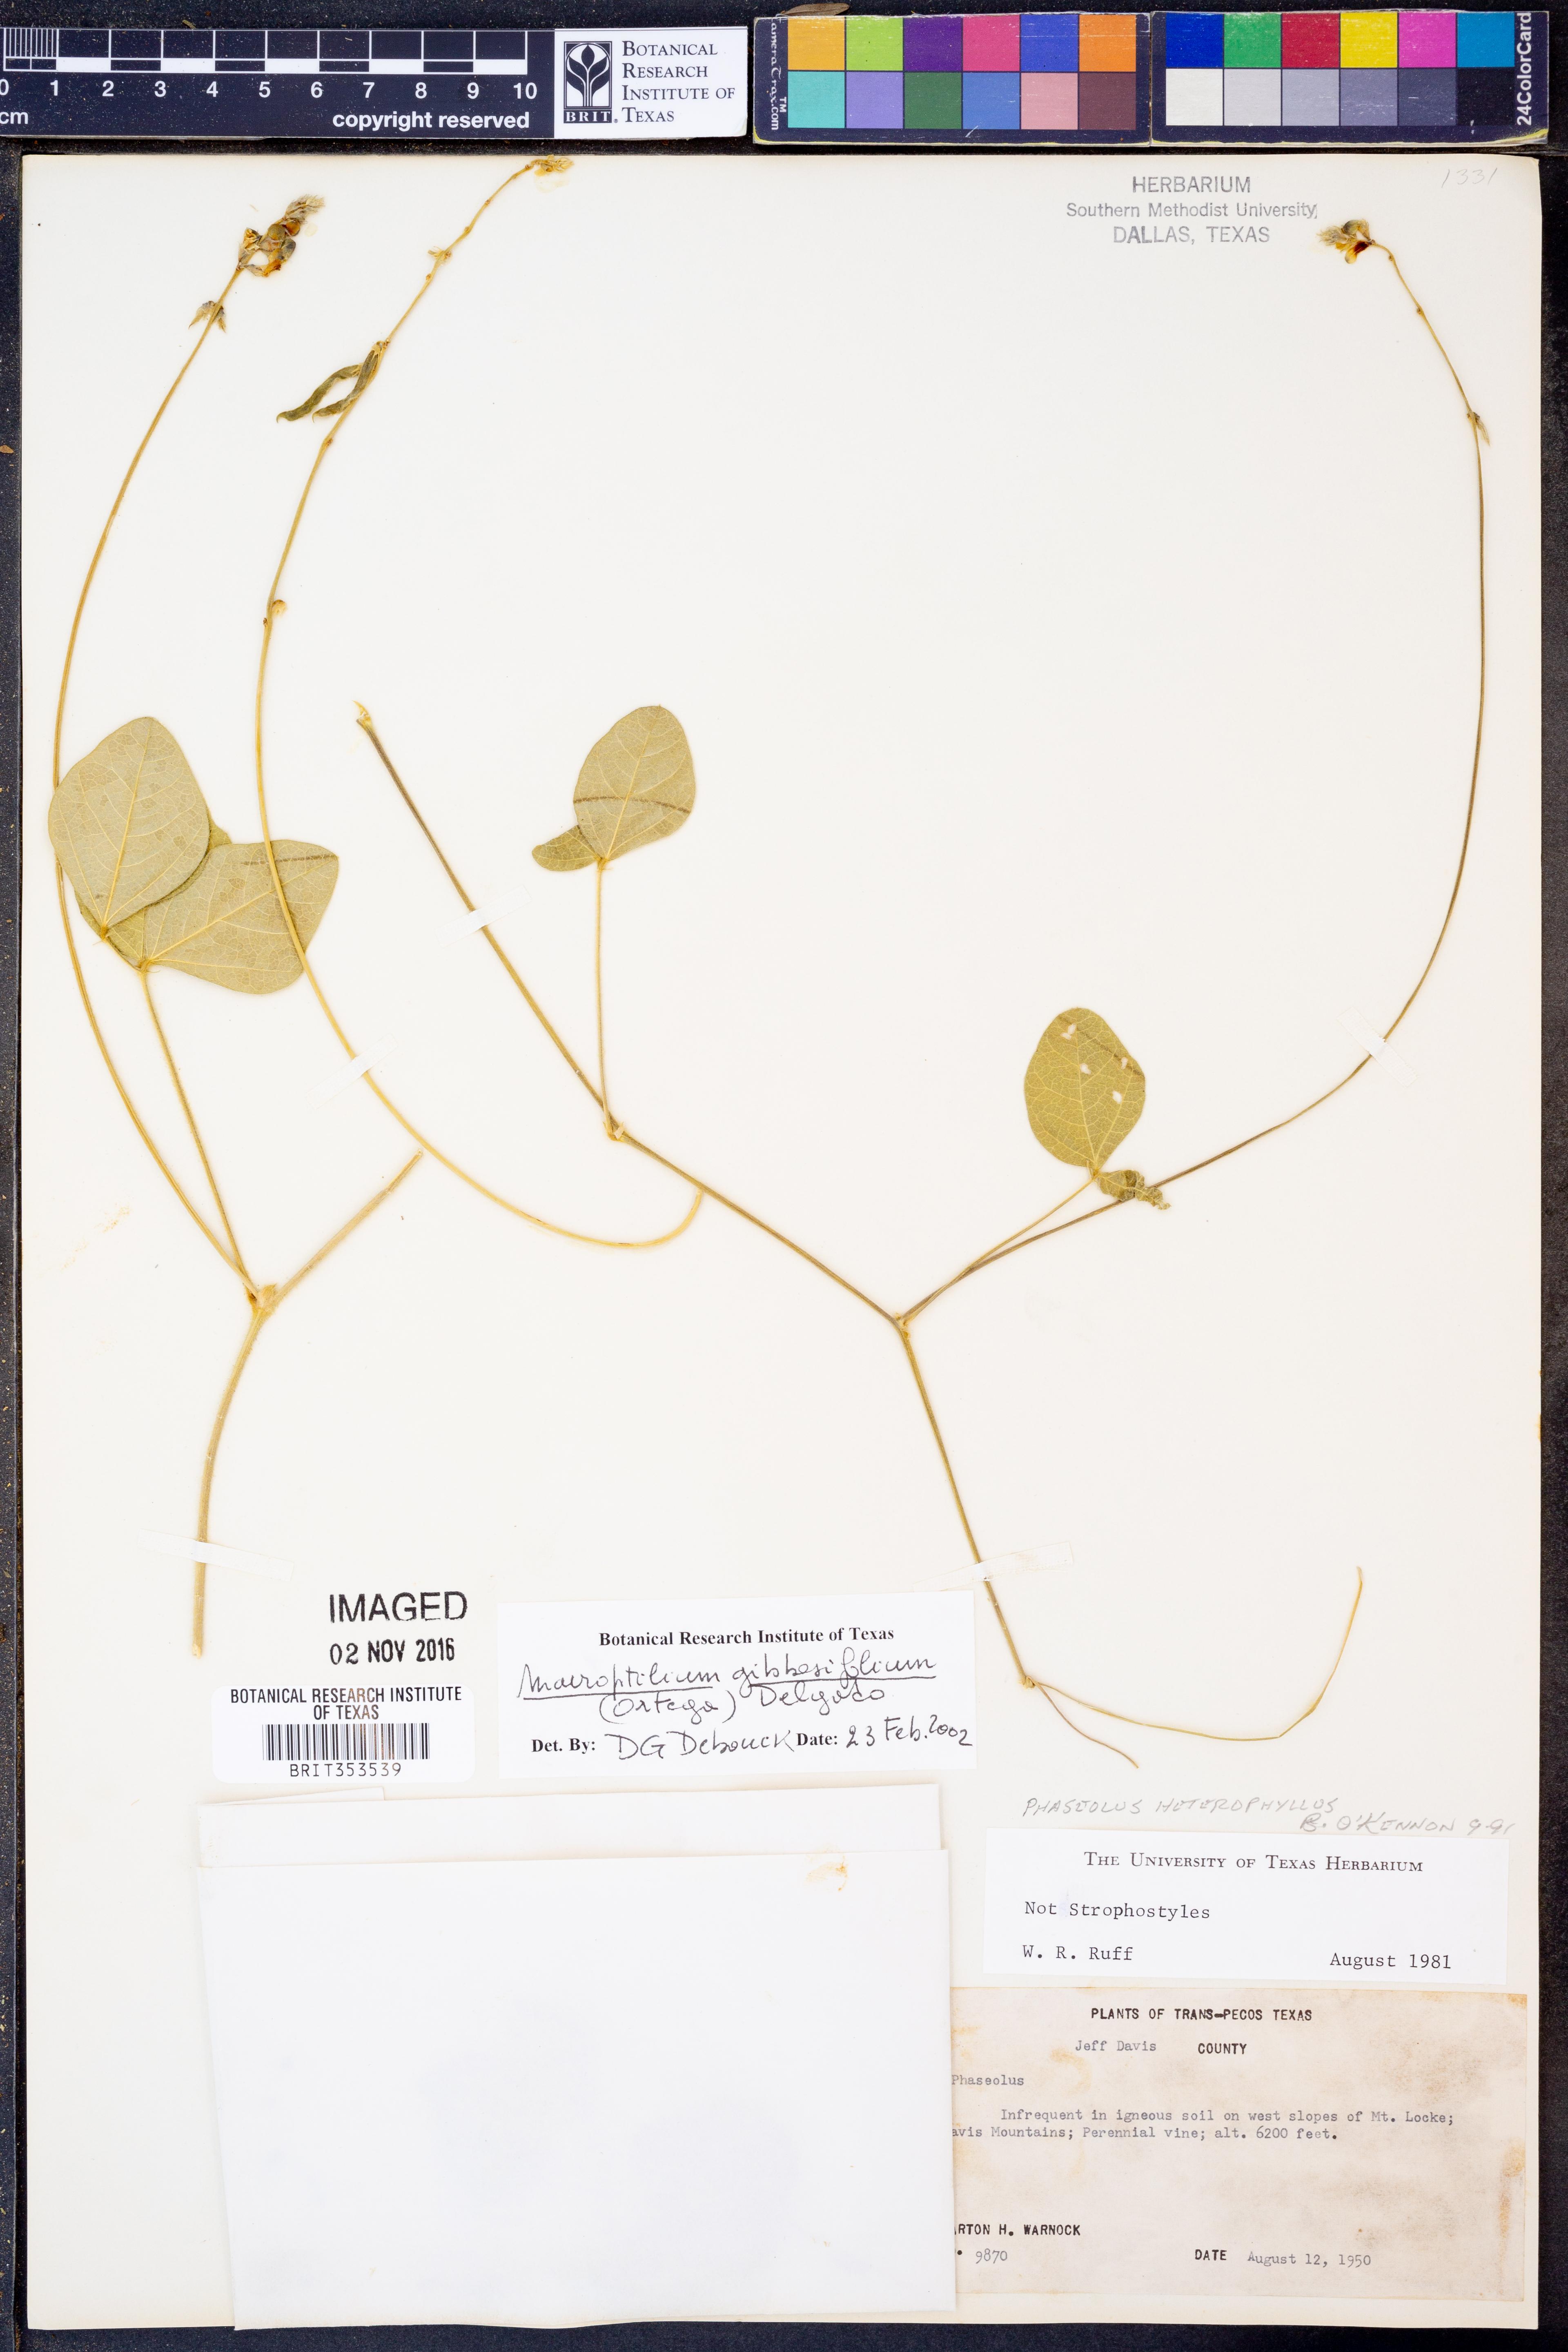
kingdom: Plantae
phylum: Tracheophyta
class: Magnoliopsida
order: Fabales
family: Fabaceae
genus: Macroptilium
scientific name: Macroptilium gibbosifolium
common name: Variableleaf bushbean
